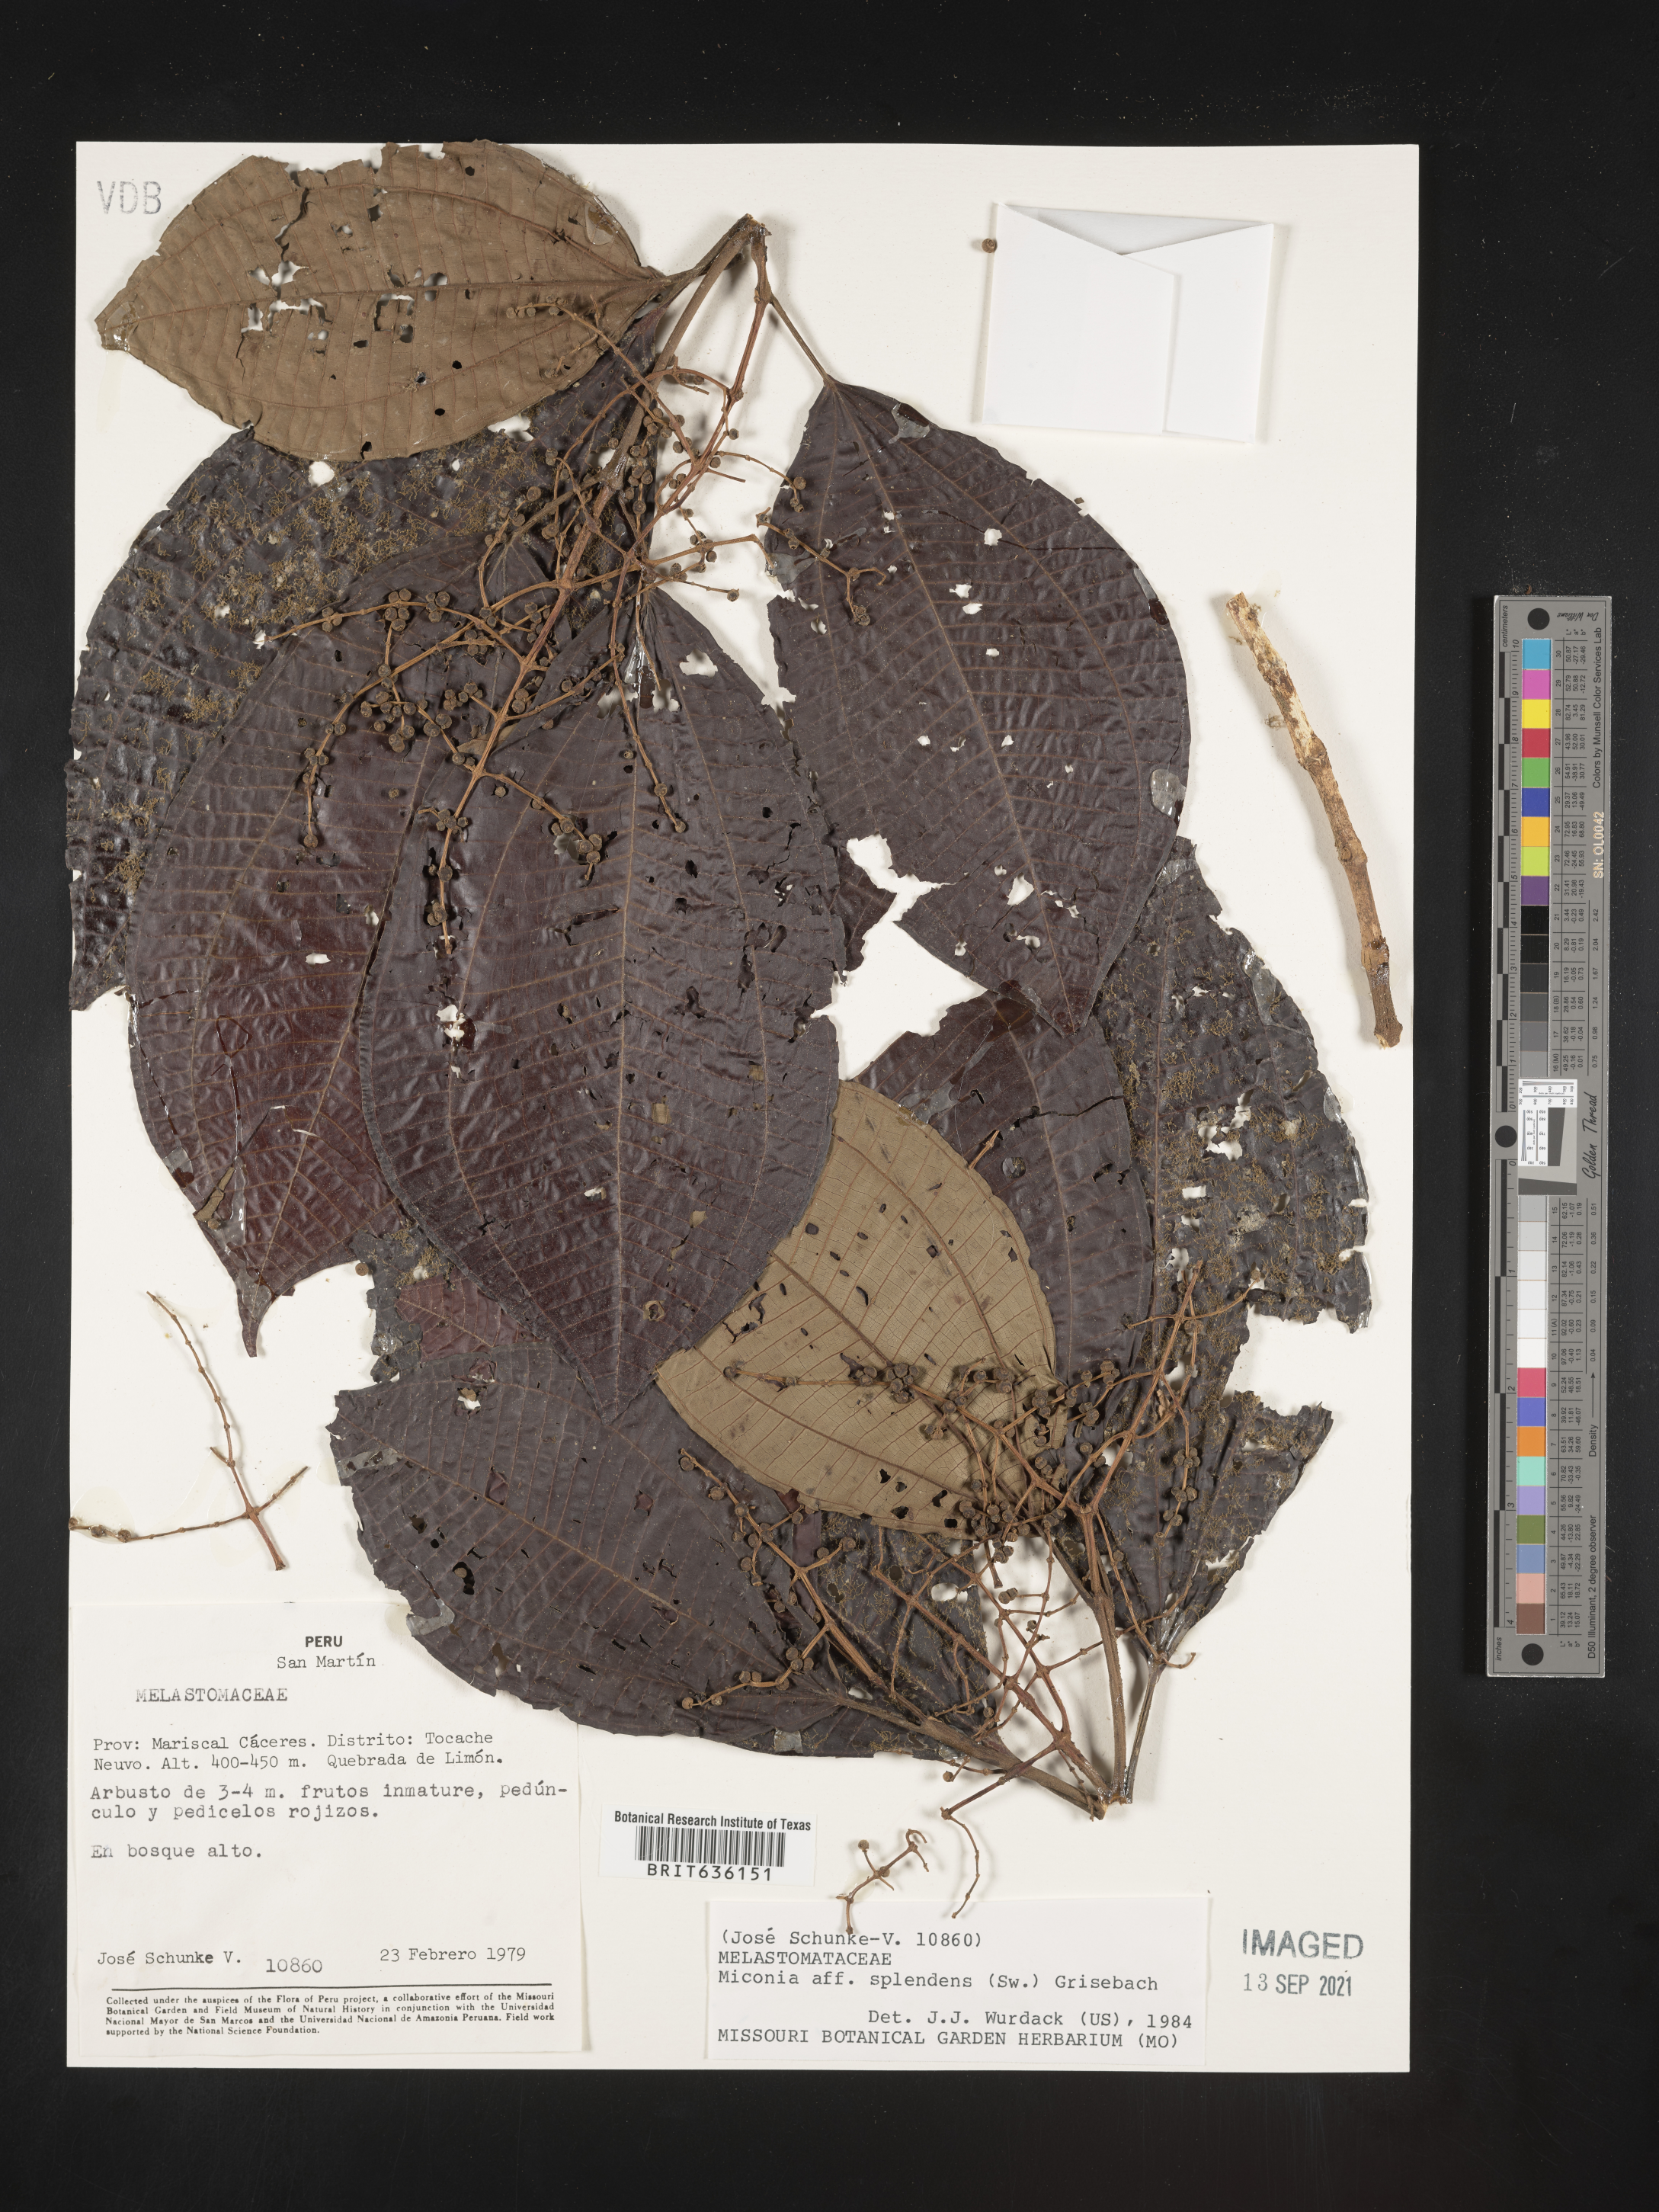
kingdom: Plantae
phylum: Tracheophyta
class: Magnoliopsida
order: Myrtales
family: Melastomataceae
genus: Miconia
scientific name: Miconia
